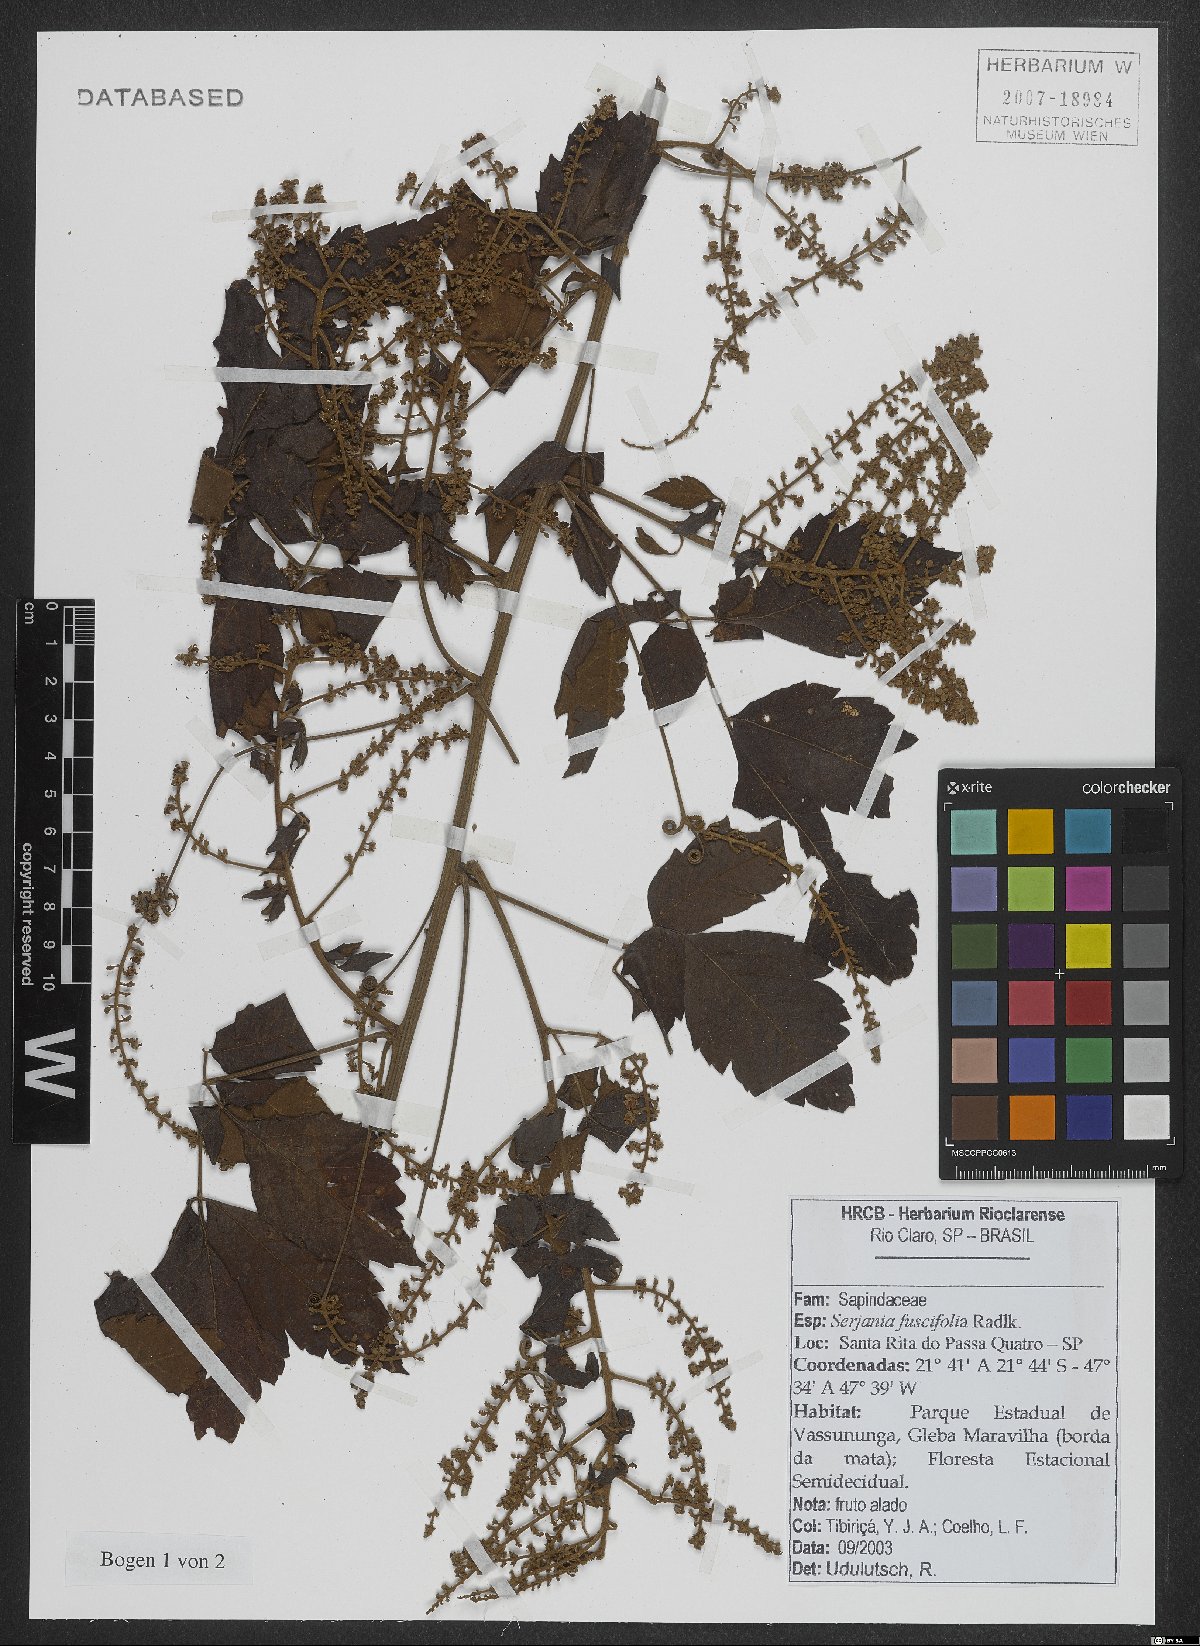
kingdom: Plantae
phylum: Tracheophyta
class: Magnoliopsida
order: Sapindales
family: Sapindaceae
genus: Serjania
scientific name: Serjania fuscifolia
